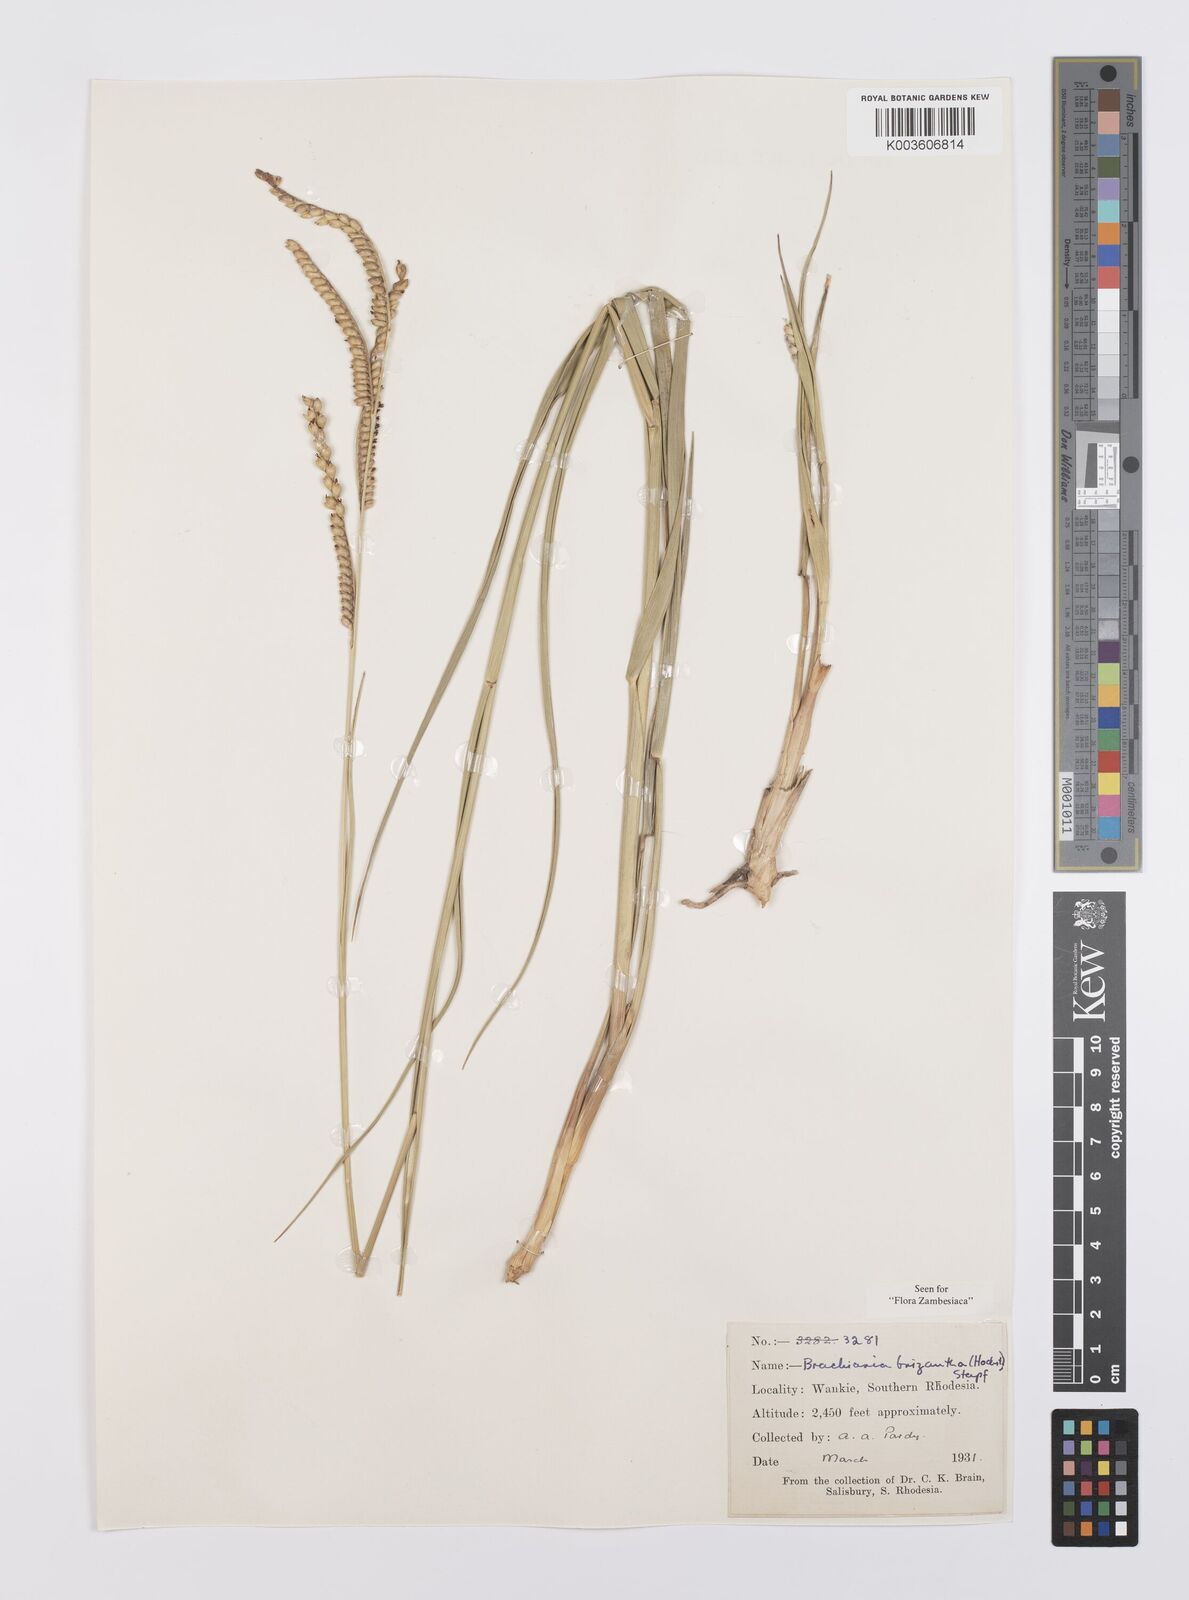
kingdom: Plantae
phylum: Tracheophyta
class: Liliopsida
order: Poales
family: Poaceae
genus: Urochloa
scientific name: Urochloa brizantha
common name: Palisade signalgrass
